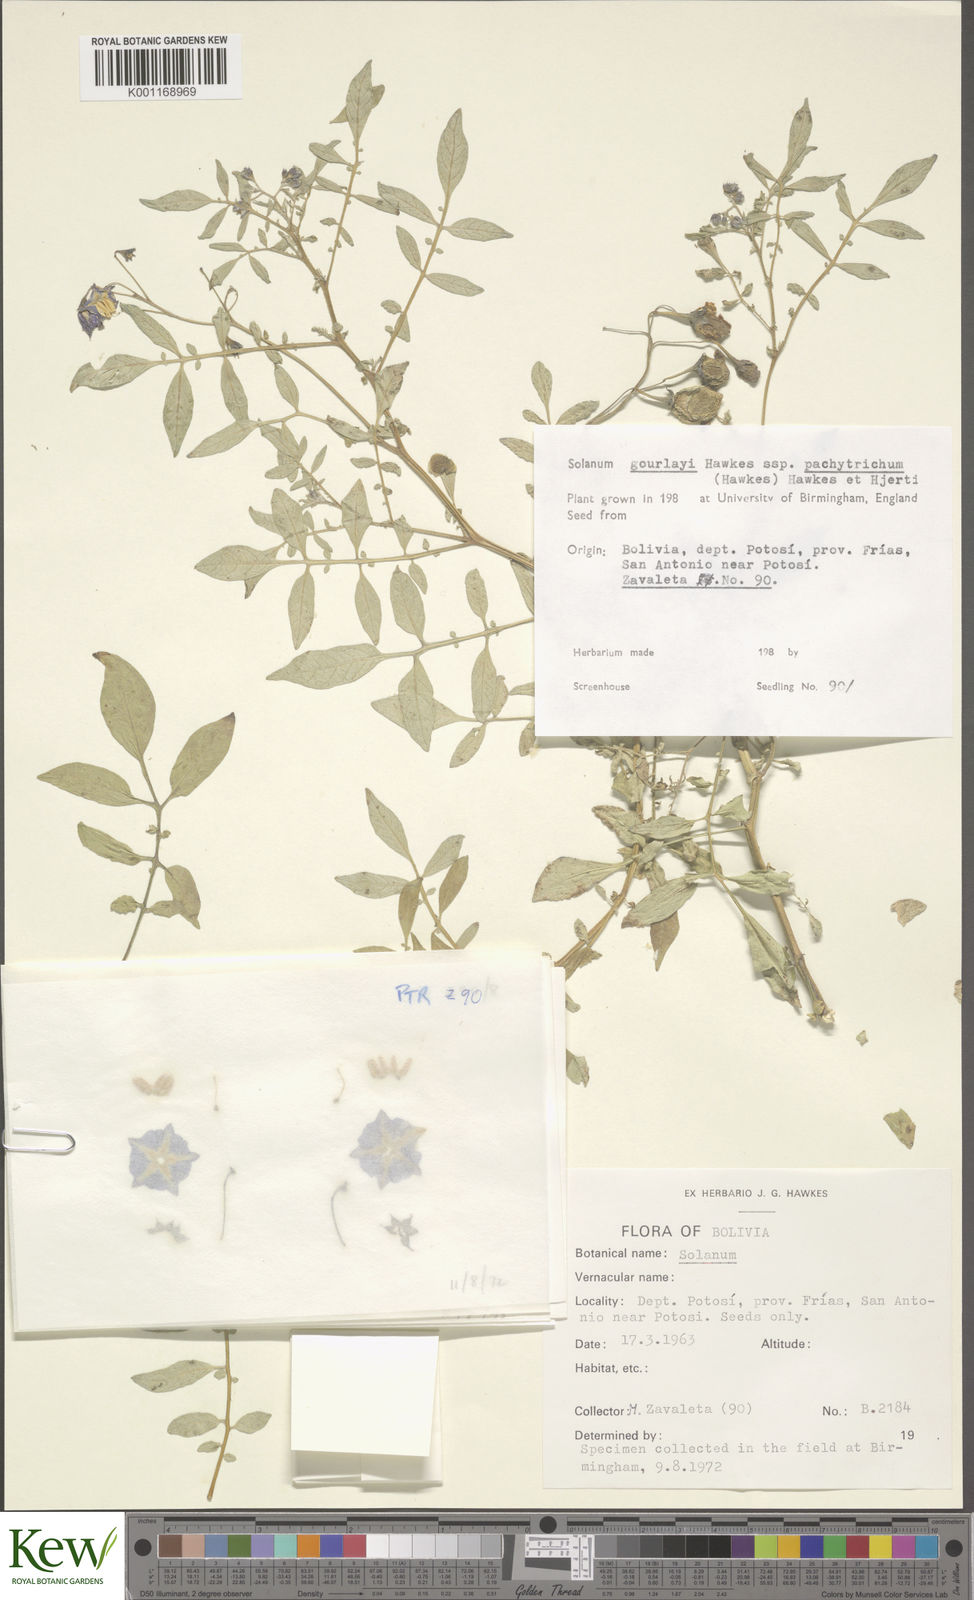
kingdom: Plantae
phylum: Tracheophyta
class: Magnoliopsida
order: Solanales
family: Solanaceae
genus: Solanum
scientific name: Solanum brevicaule
